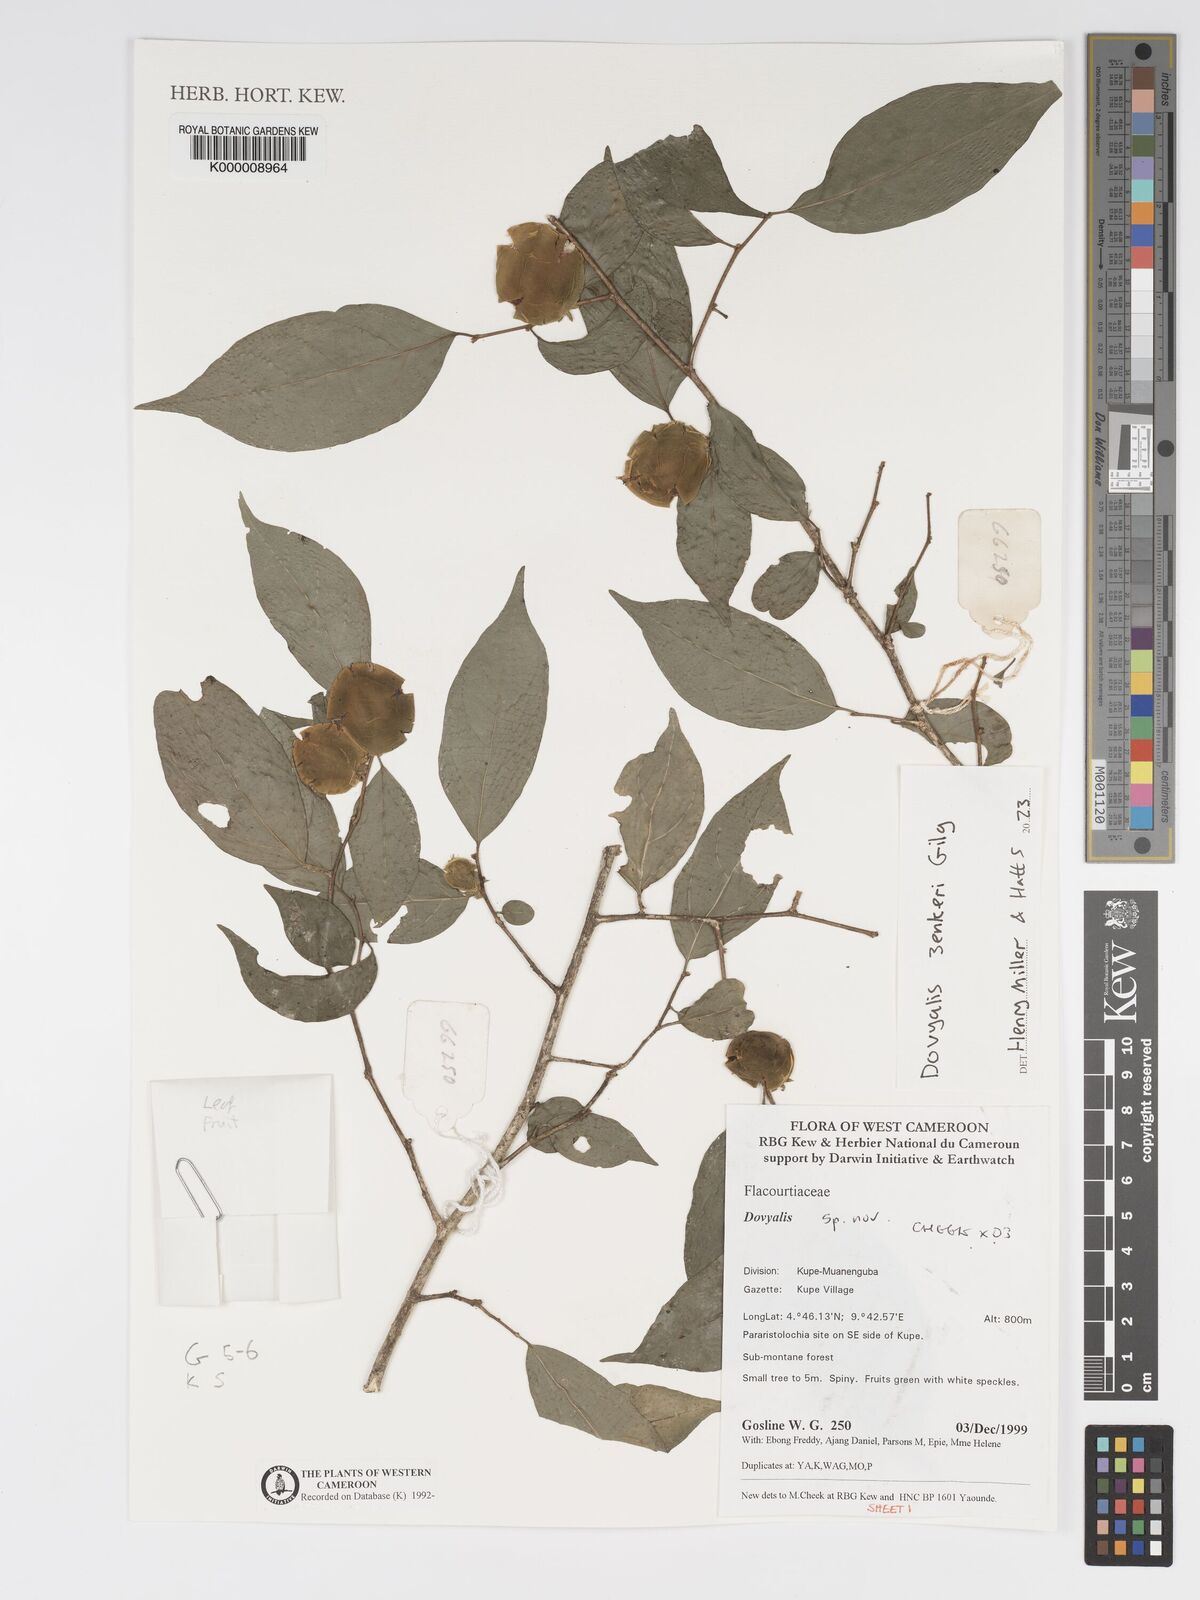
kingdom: Plantae
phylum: Tracheophyta
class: Magnoliopsida
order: Malpighiales
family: Salicaceae
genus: Dovyalis
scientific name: Dovyalis
